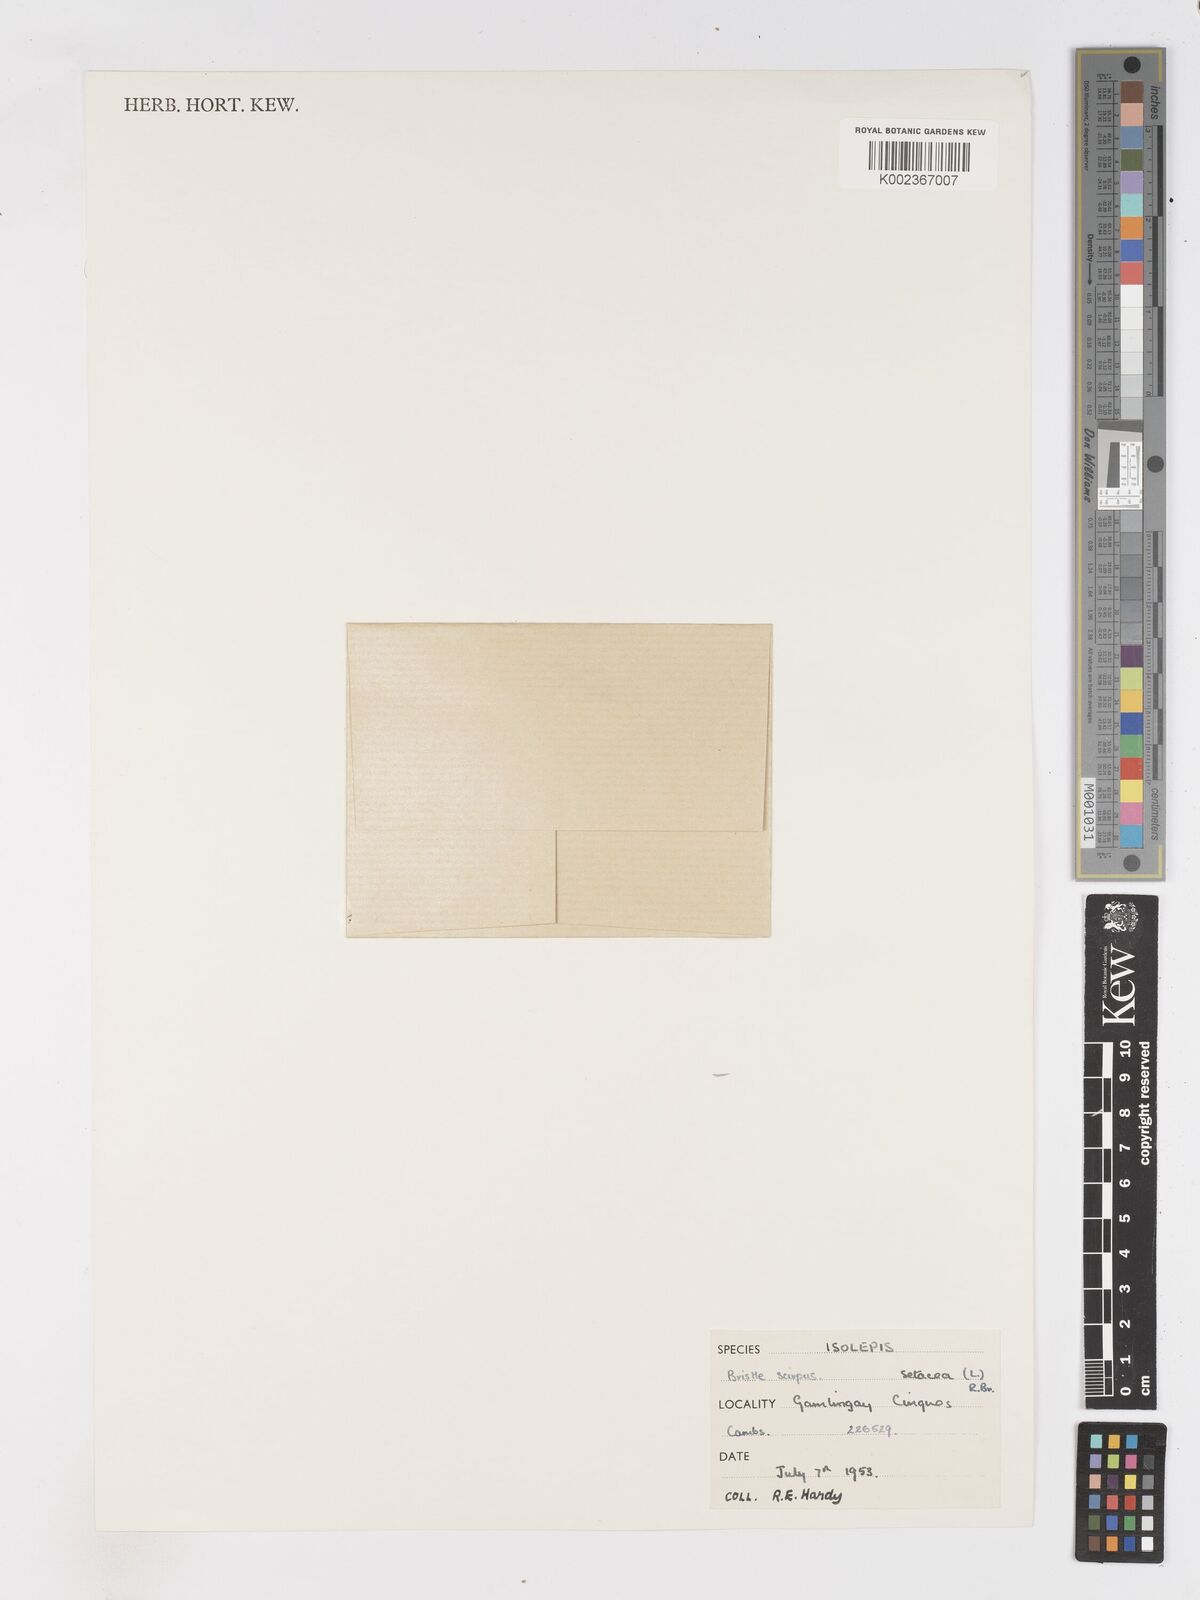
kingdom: Plantae
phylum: Tracheophyta
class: Liliopsida
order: Poales
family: Cyperaceae
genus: Isolepis
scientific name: Isolepis setacea
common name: Bristle club-rush
